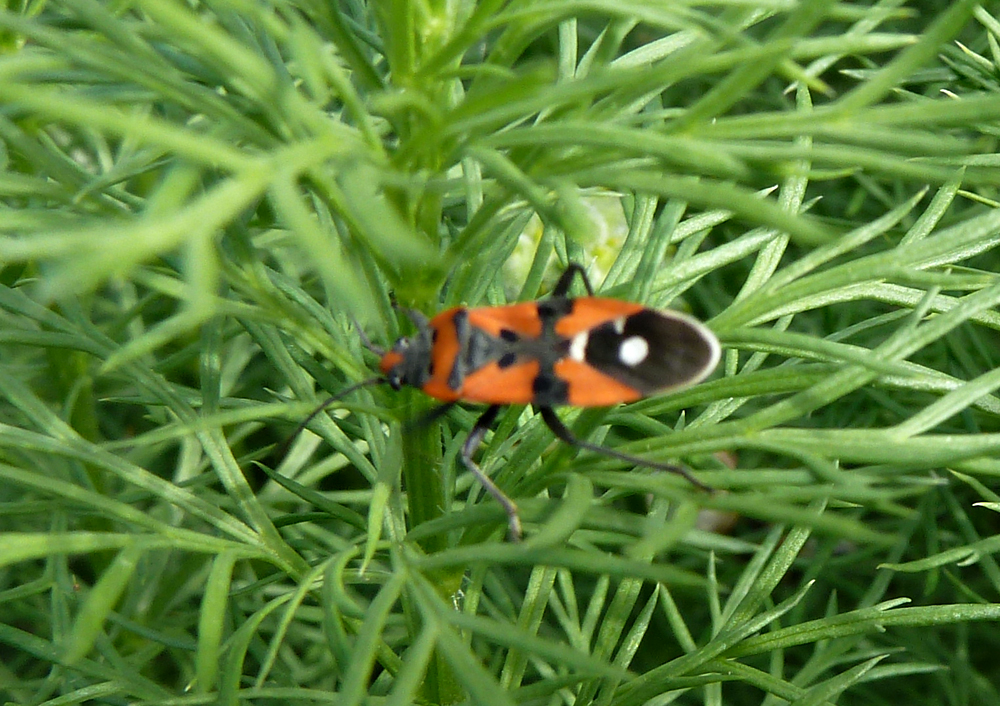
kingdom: Animalia
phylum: Arthropoda
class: Insecta
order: Hemiptera
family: Lygaeidae
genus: Lygaeus
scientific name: Lygaeus equestris
